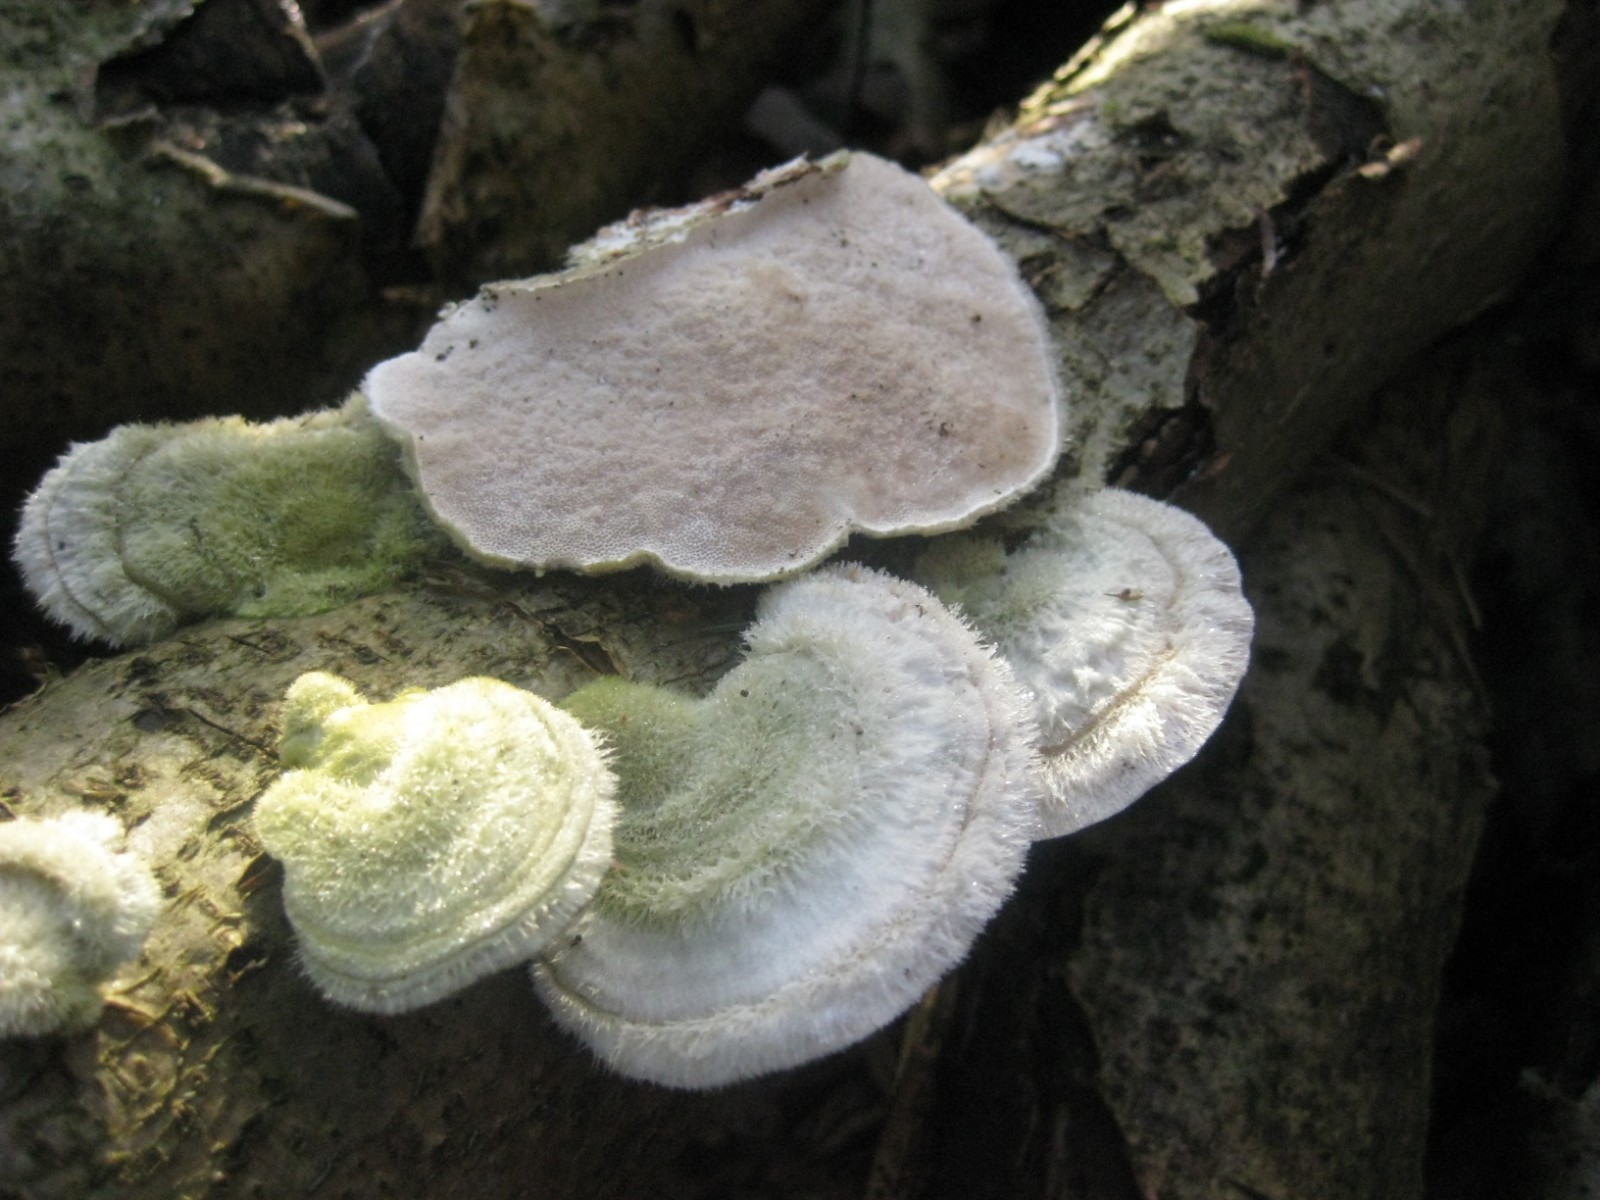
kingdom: Fungi
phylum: Basidiomycota
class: Agaricomycetes
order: Polyporales
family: Polyporaceae
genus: Trametes
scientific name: Trametes hirsuta
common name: håret læderporesvamp
